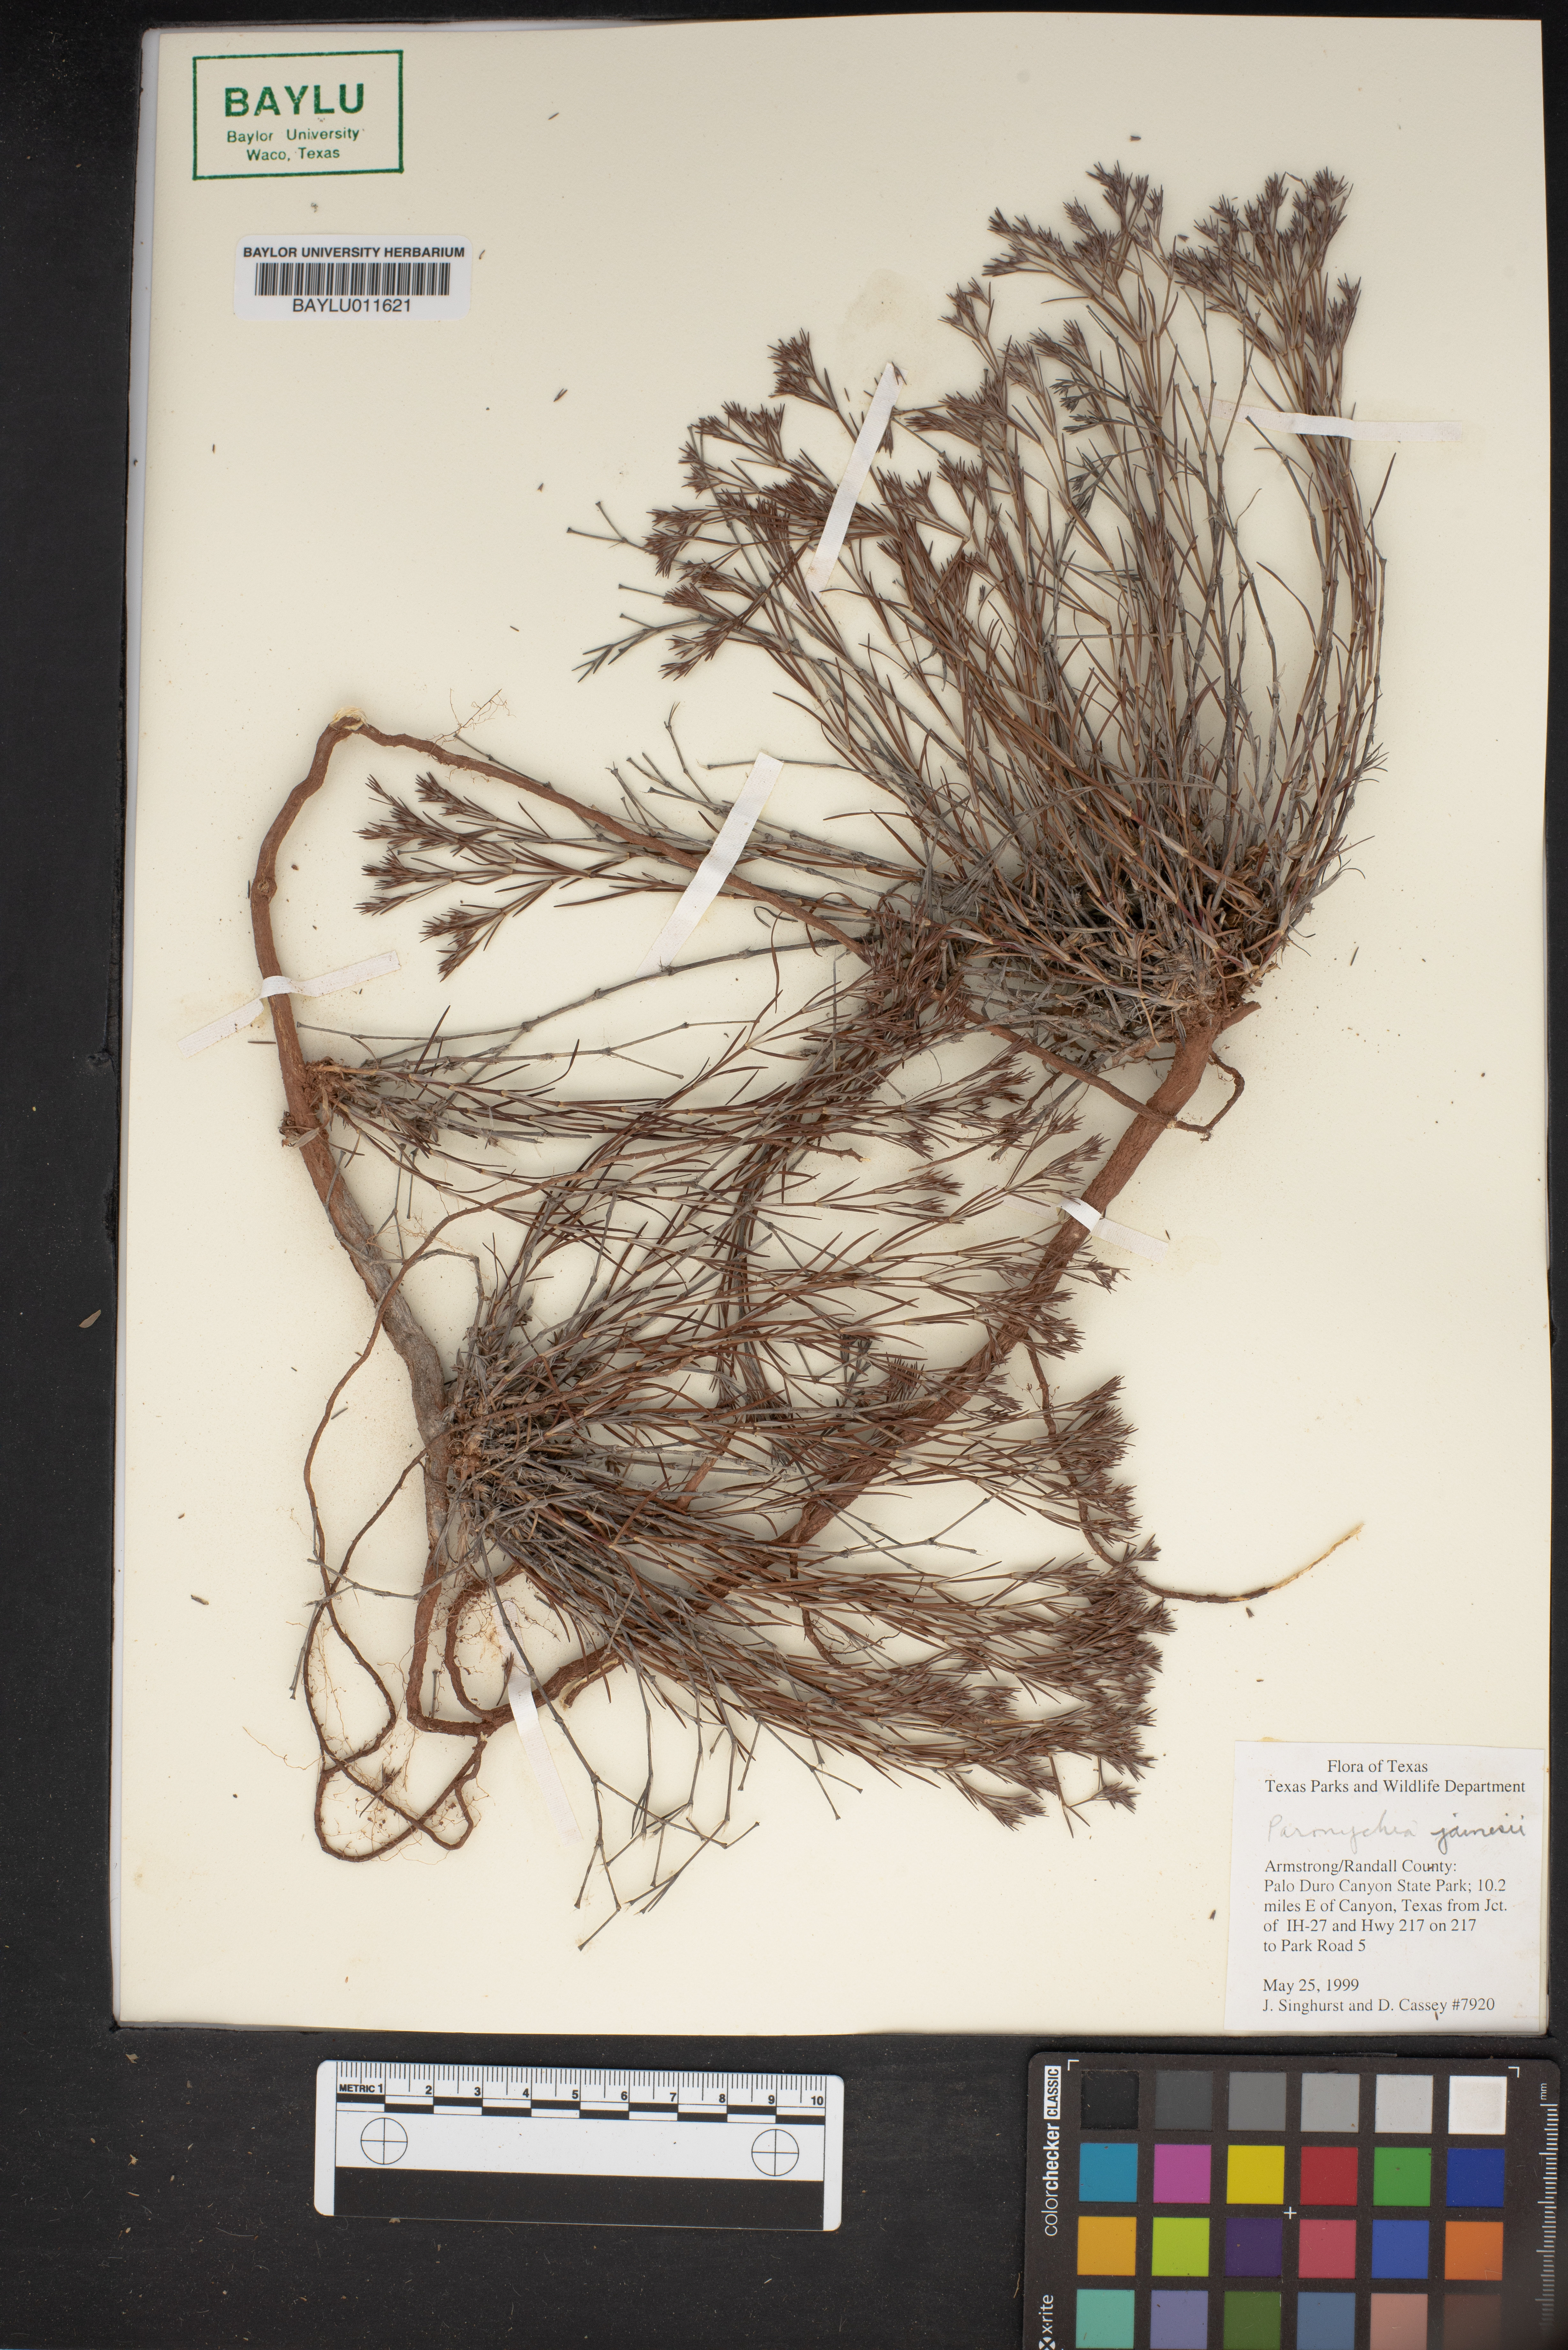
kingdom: Plantae
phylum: Tracheophyta
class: Magnoliopsida
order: Caryophyllales
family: Caryophyllaceae
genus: Paronychia
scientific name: Paronychia jamesii
